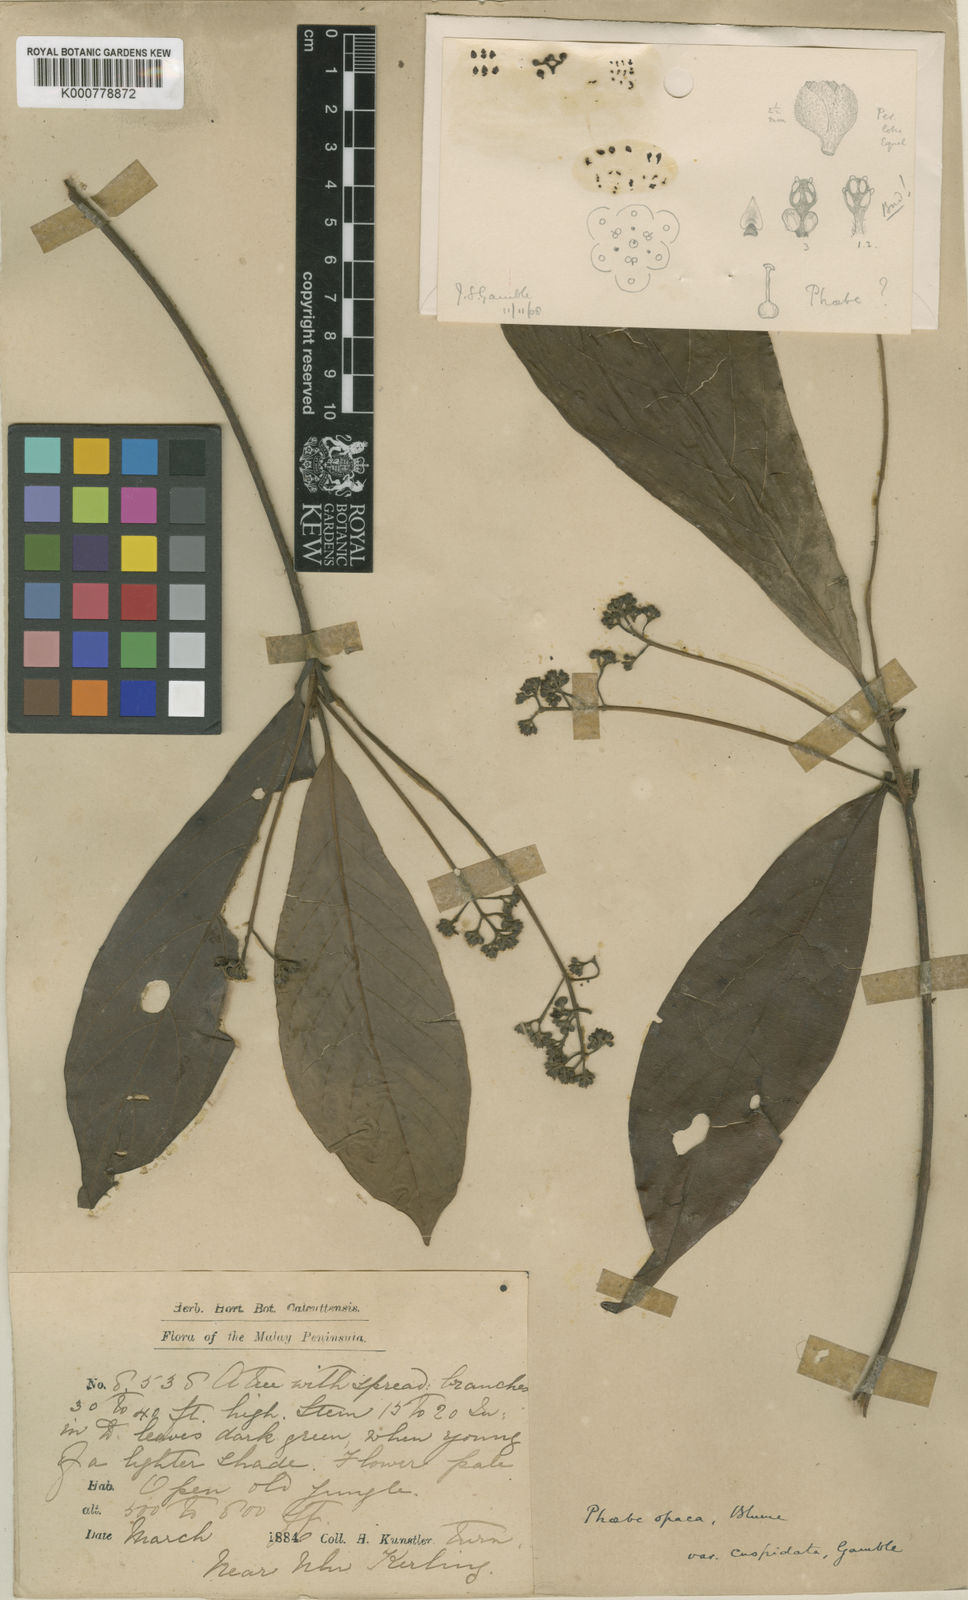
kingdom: Plantae
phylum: Tracheophyta
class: Magnoliopsida
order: Laurales
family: Lauraceae
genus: Phoebe
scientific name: Phoebe grandis
